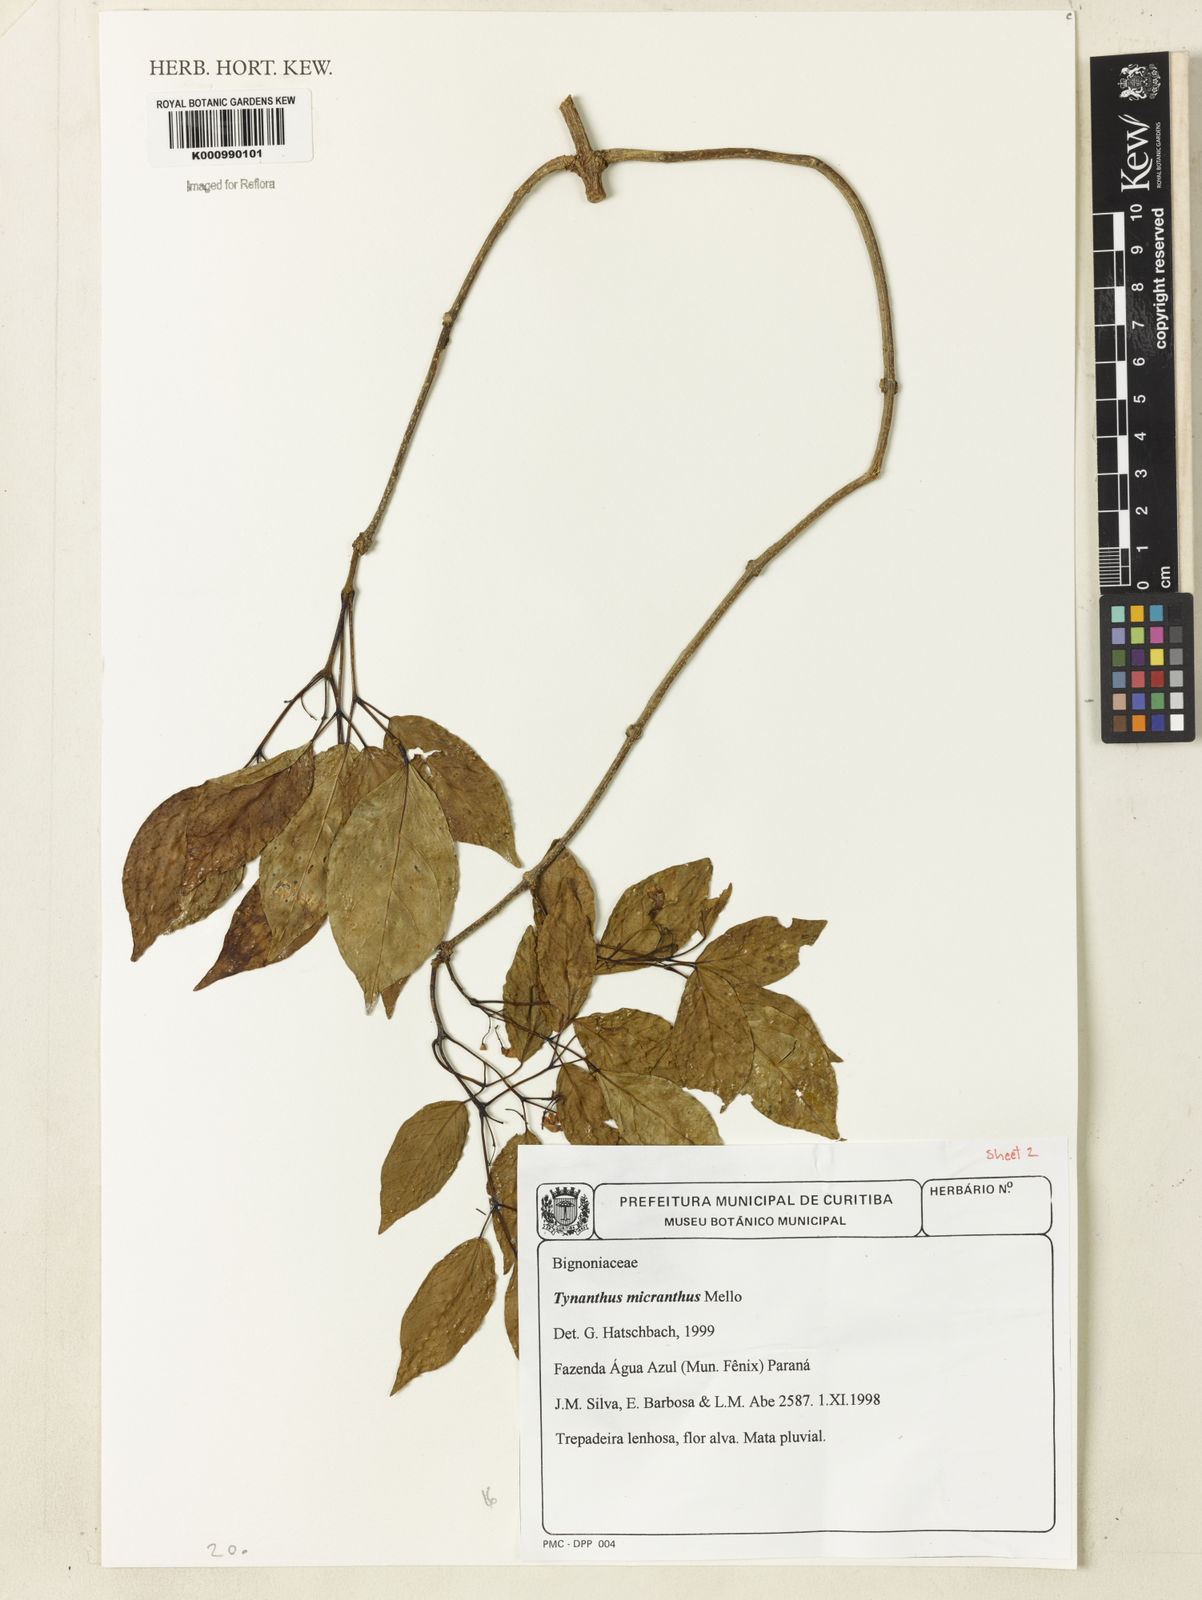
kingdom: Plantae
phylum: Tracheophyta
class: Magnoliopsida
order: Lamiales
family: Bignoniaceae
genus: Tynanthus
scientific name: Tynanthus
